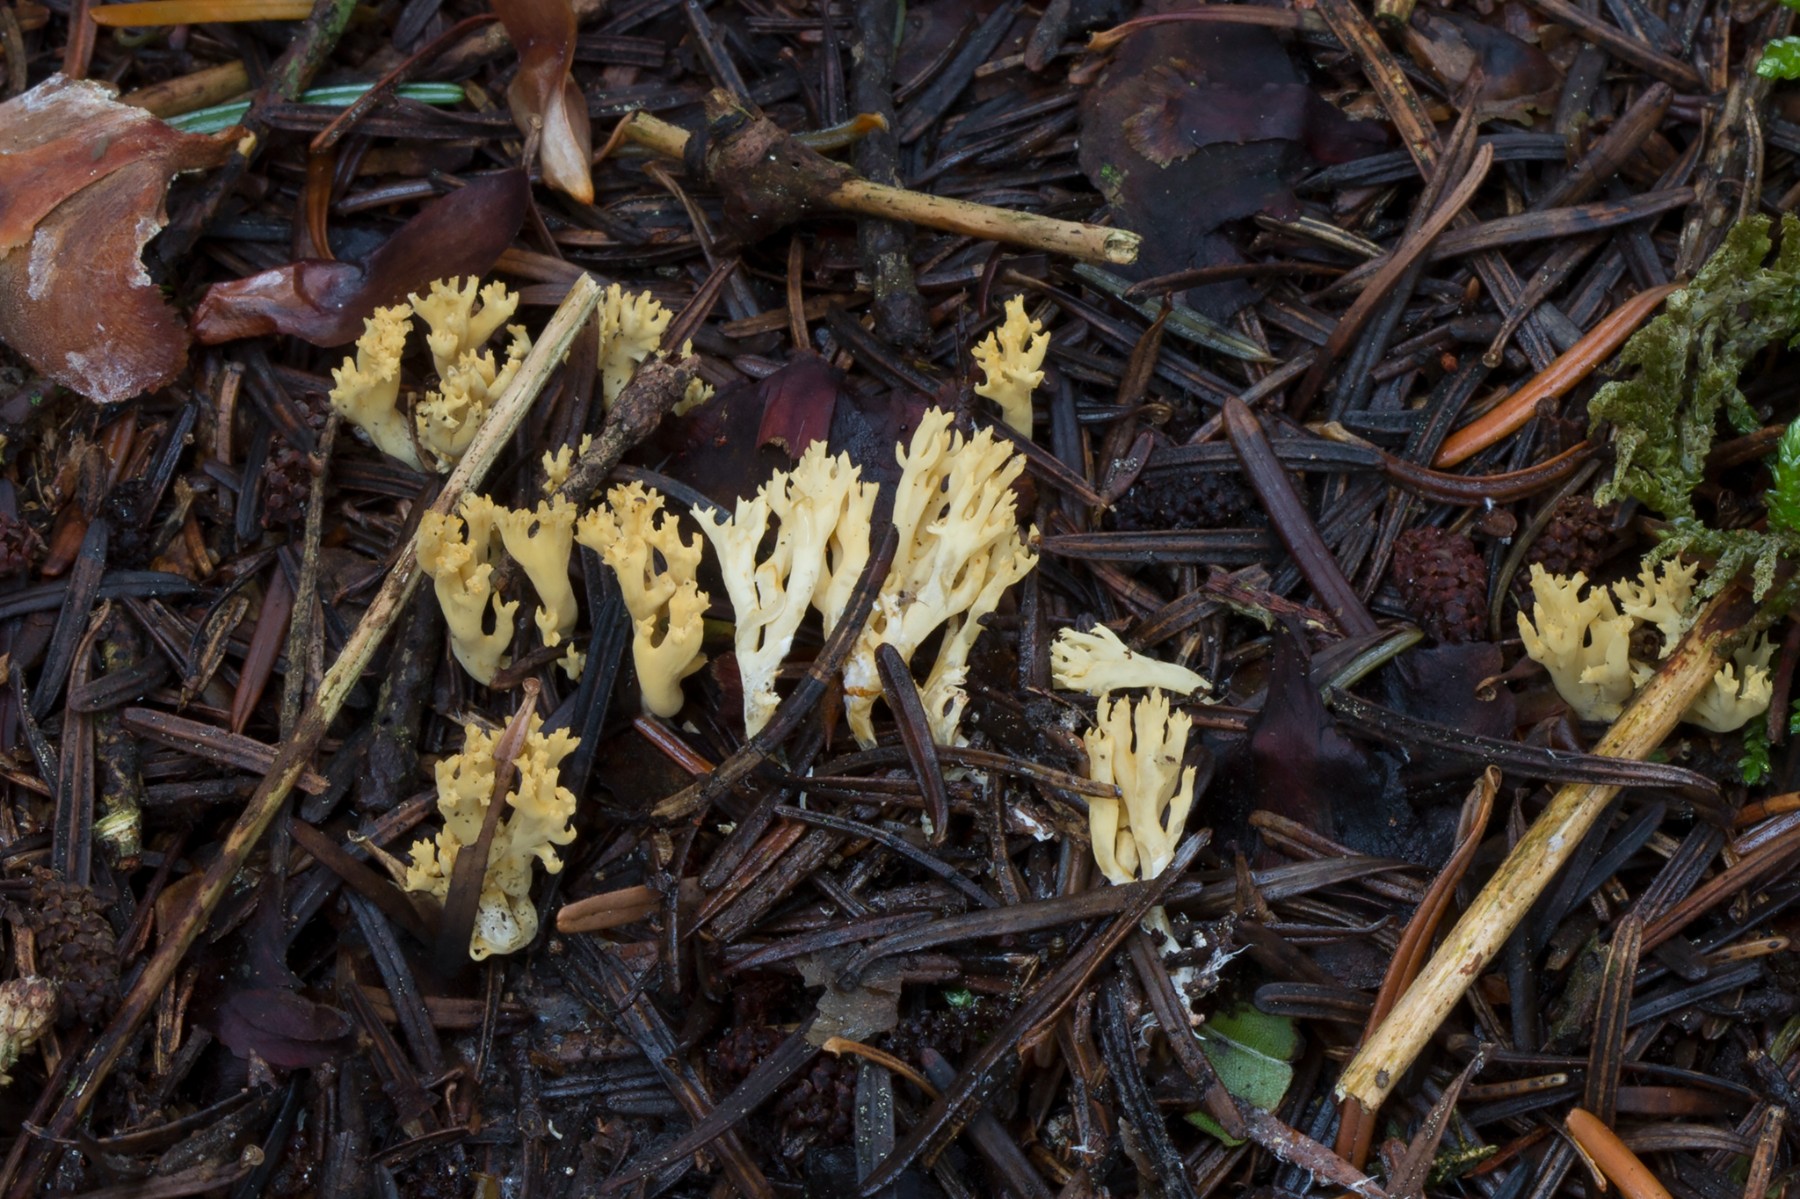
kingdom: Fungi
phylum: Basidiomycota
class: Agaricomycetes
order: Gomphales
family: Gomphaceae
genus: Phaeoclavulina
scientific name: Phaeoclavulina eumorpha
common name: gran-koralsvamp
